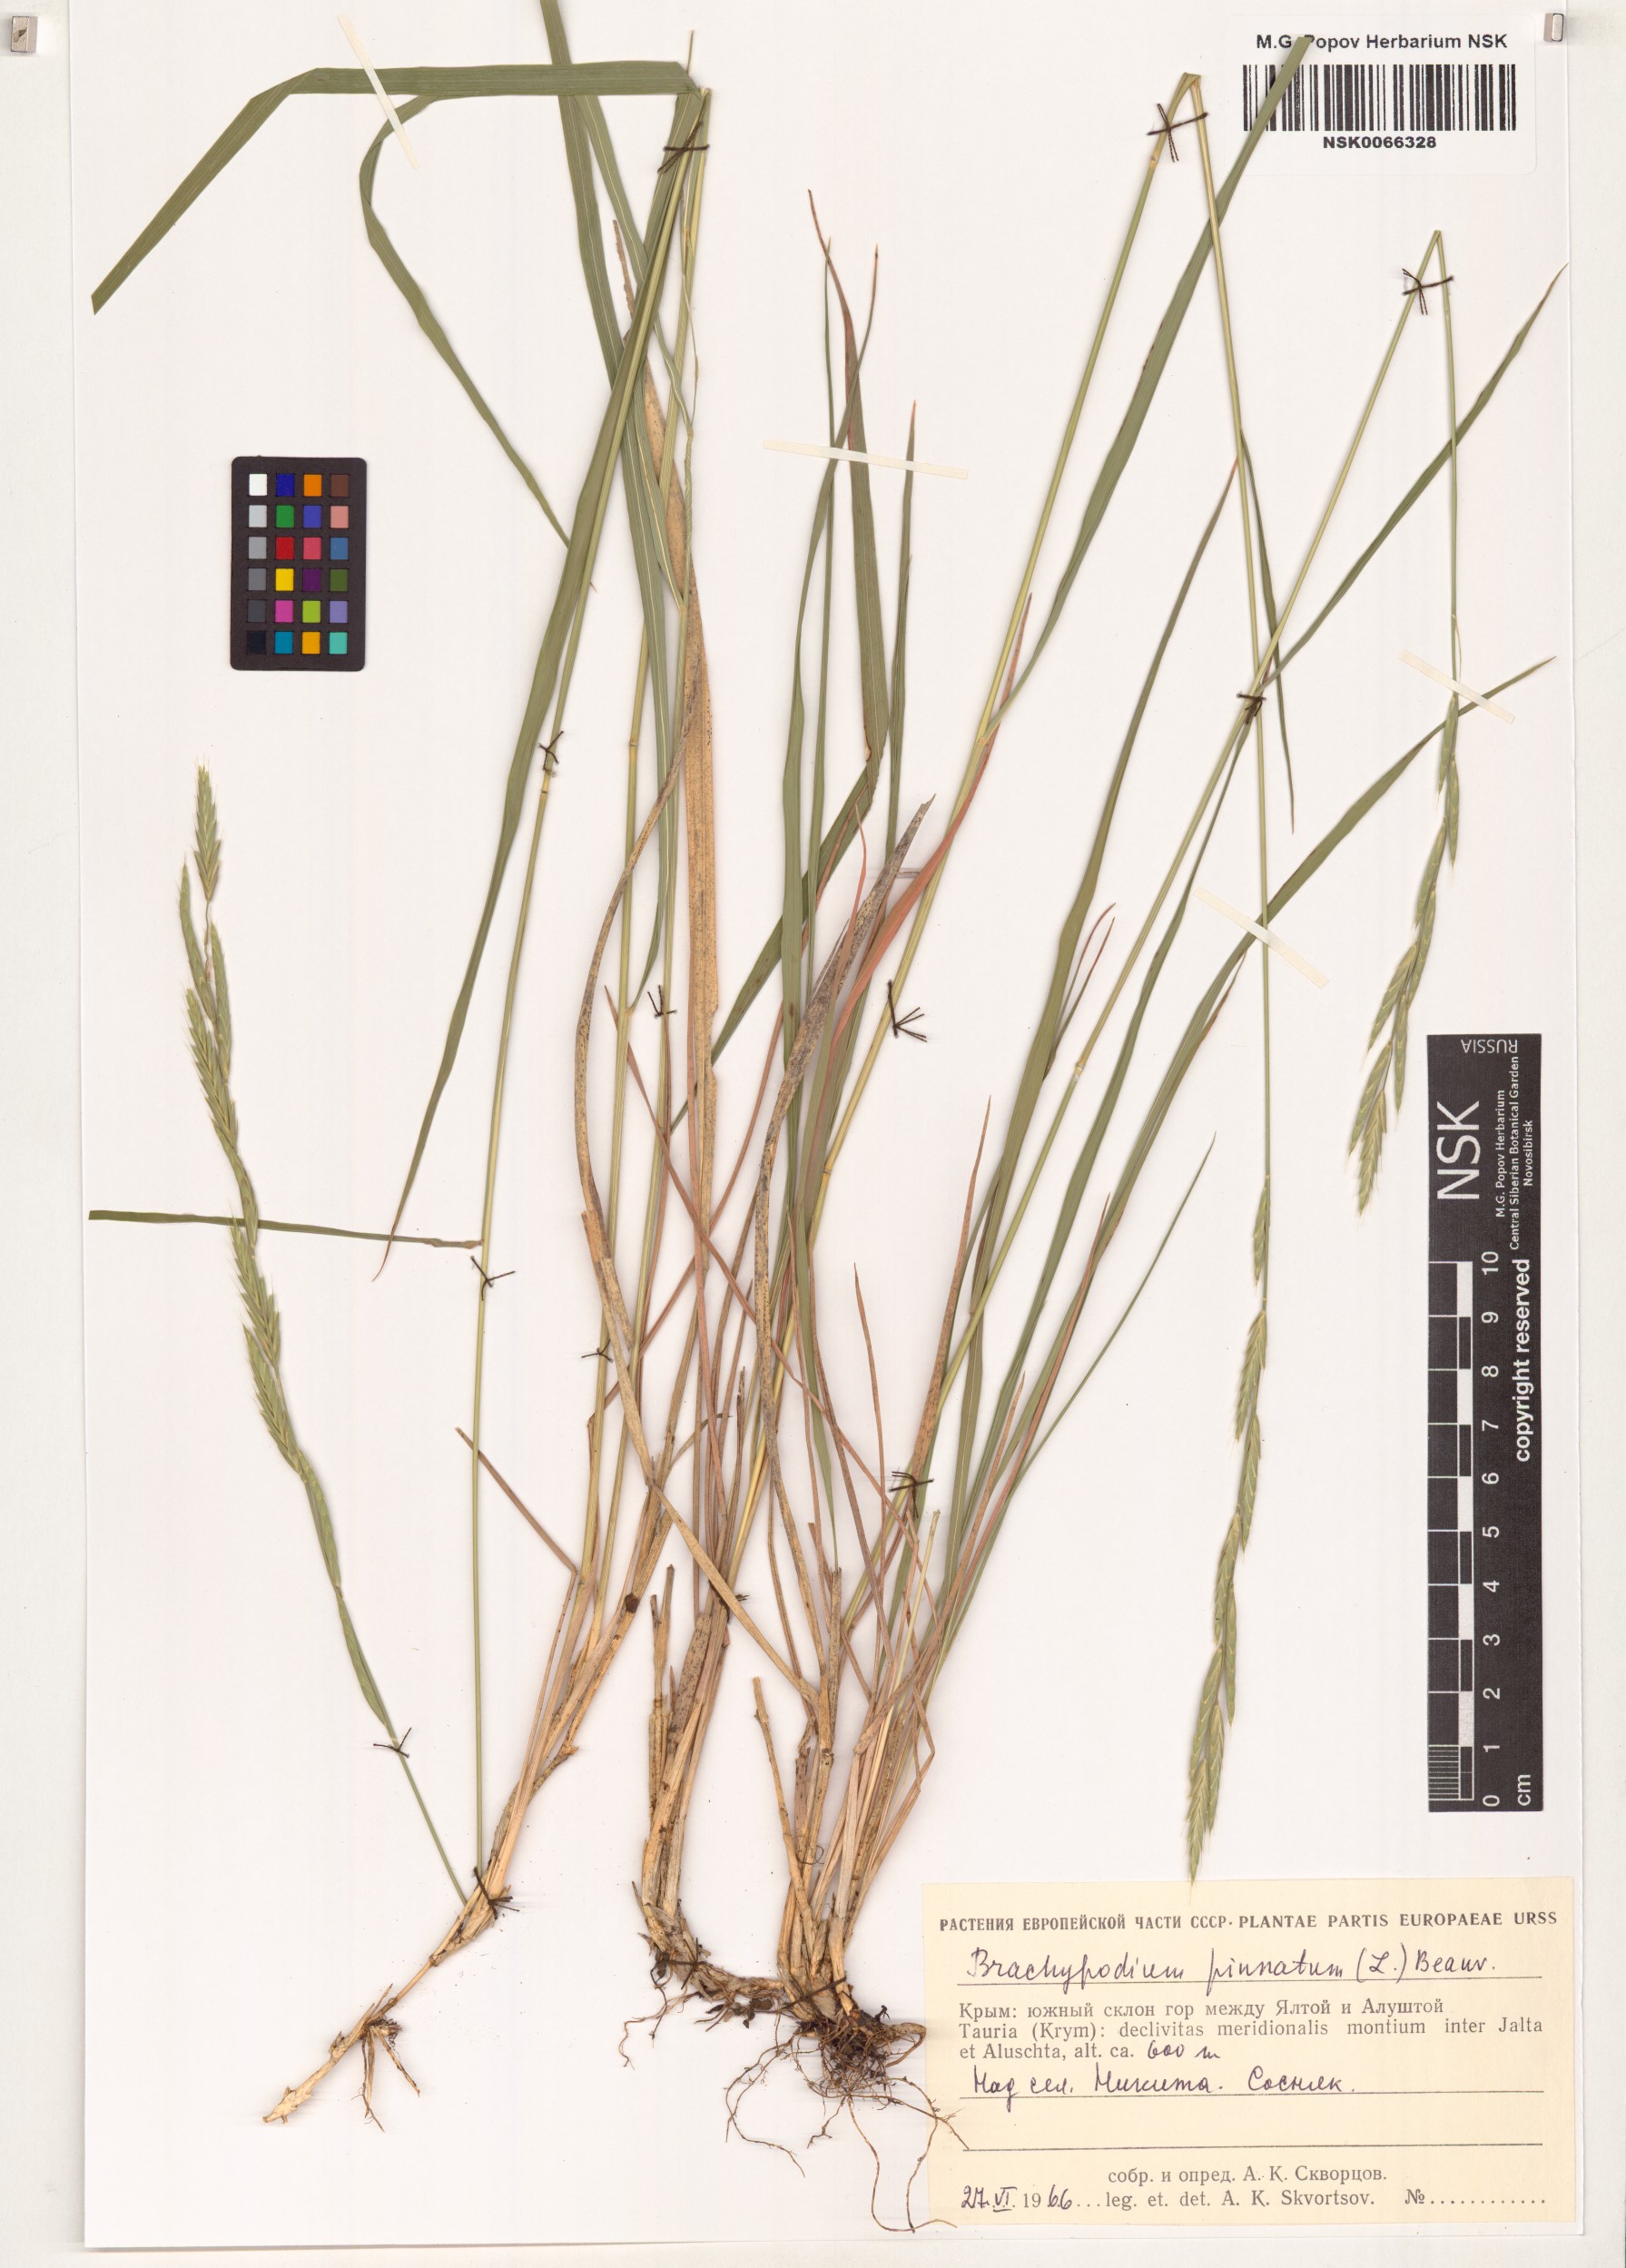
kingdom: Plantae
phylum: Tracheophyta
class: Liliopsida
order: Poales
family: Poaceae
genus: Brachypodium
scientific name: Brachypodium pinnatum
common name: Tor grass
